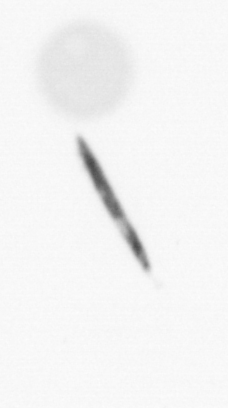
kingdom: Chromista
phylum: Ochrophyta
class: Bacillariophyceae
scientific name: Bacillariophyceae
